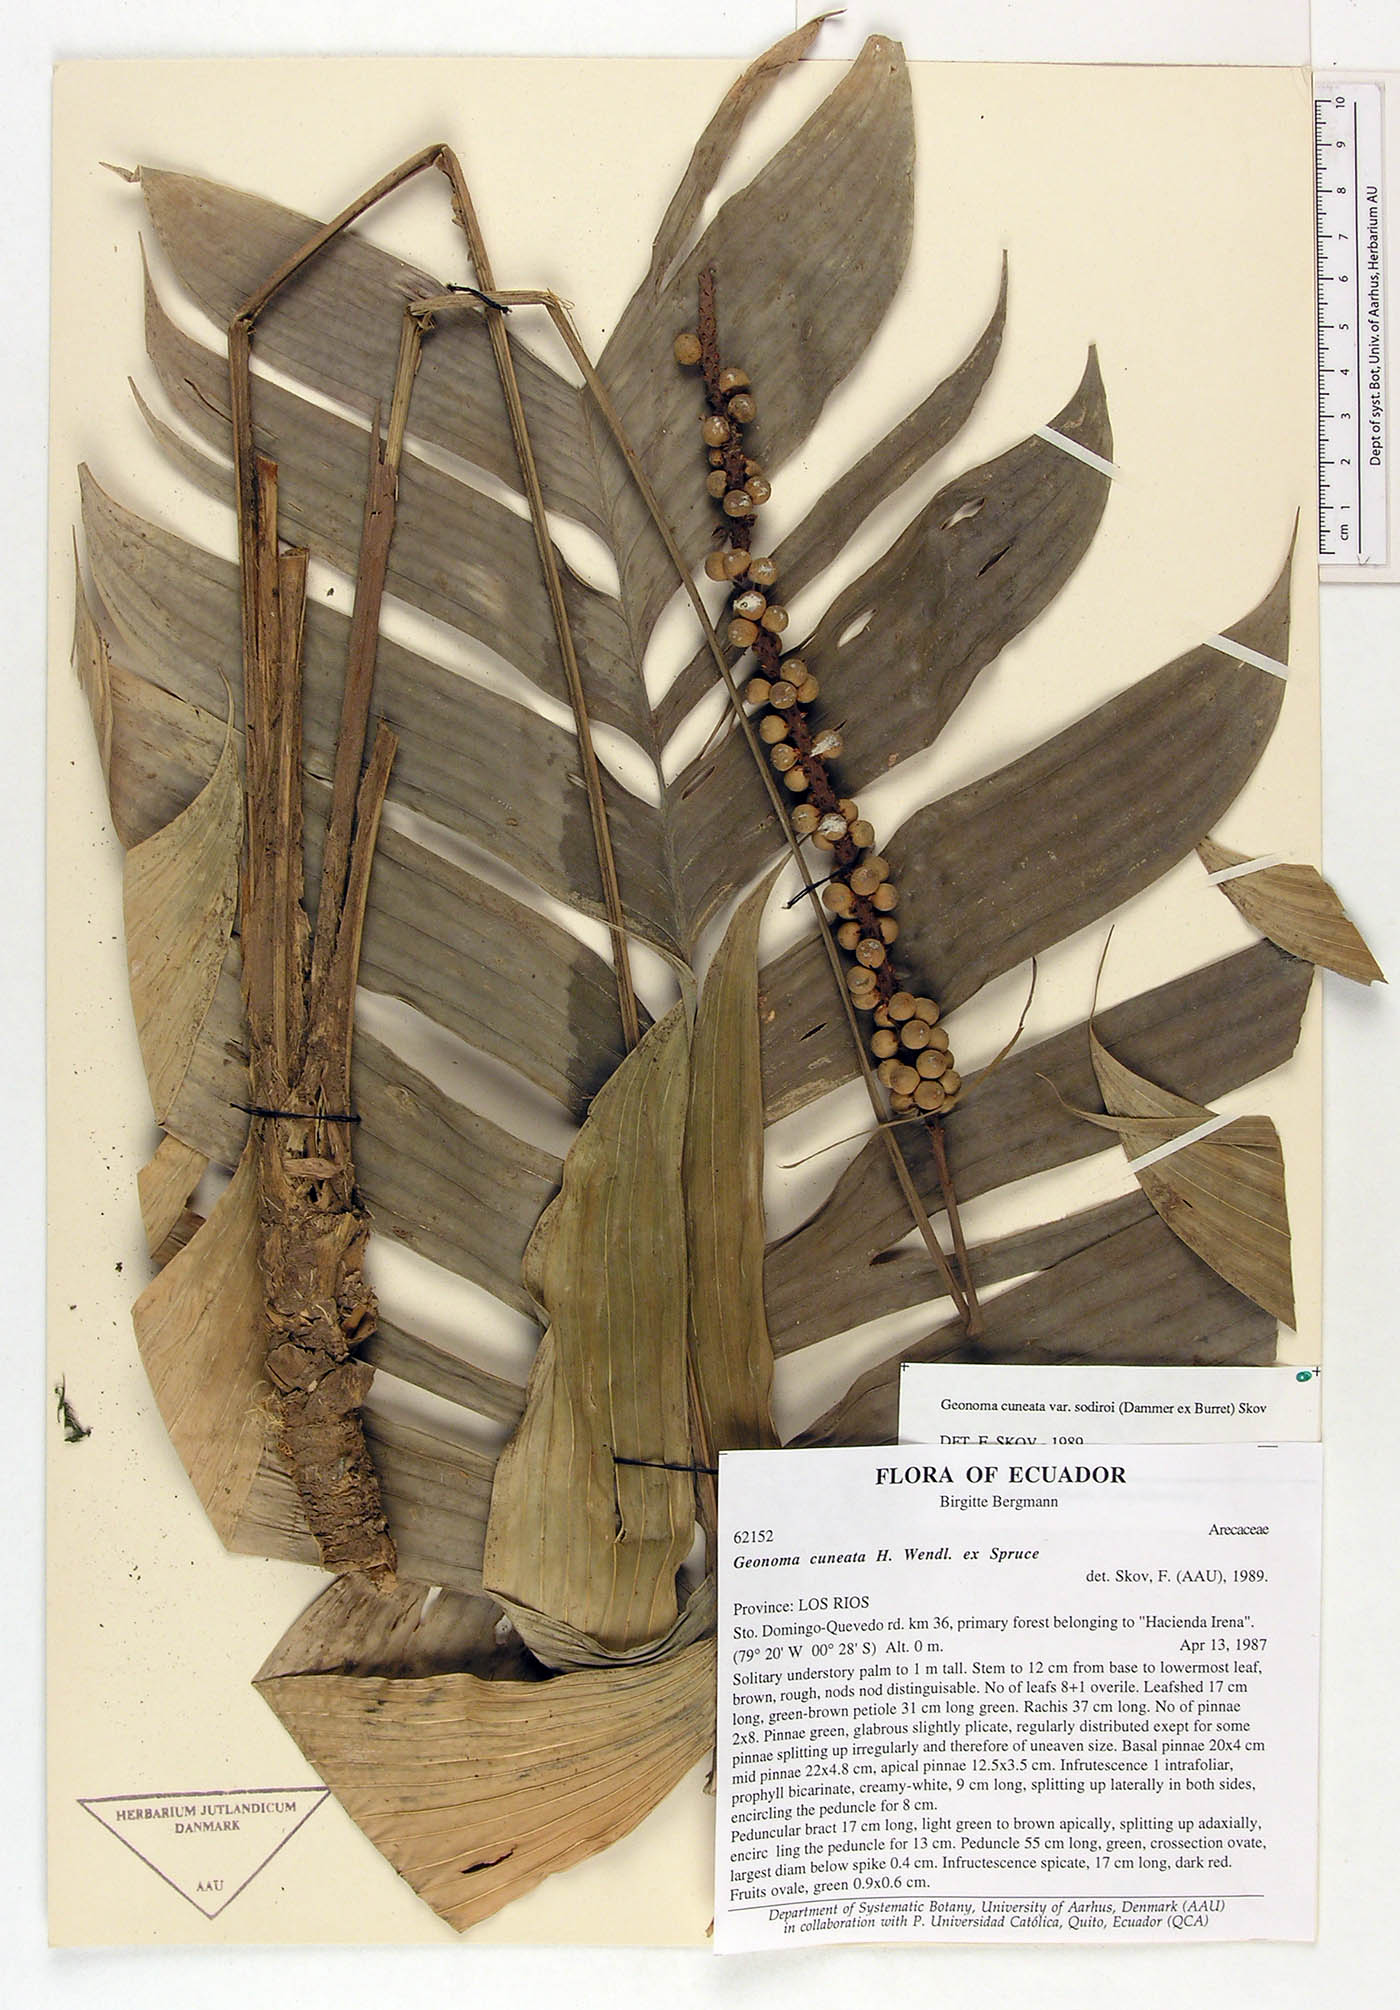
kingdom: Plantae
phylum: Tracheophyta
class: Liliopsida
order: Arecales
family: Arecaceae
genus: Geonoma
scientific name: Geonoma cuneata
